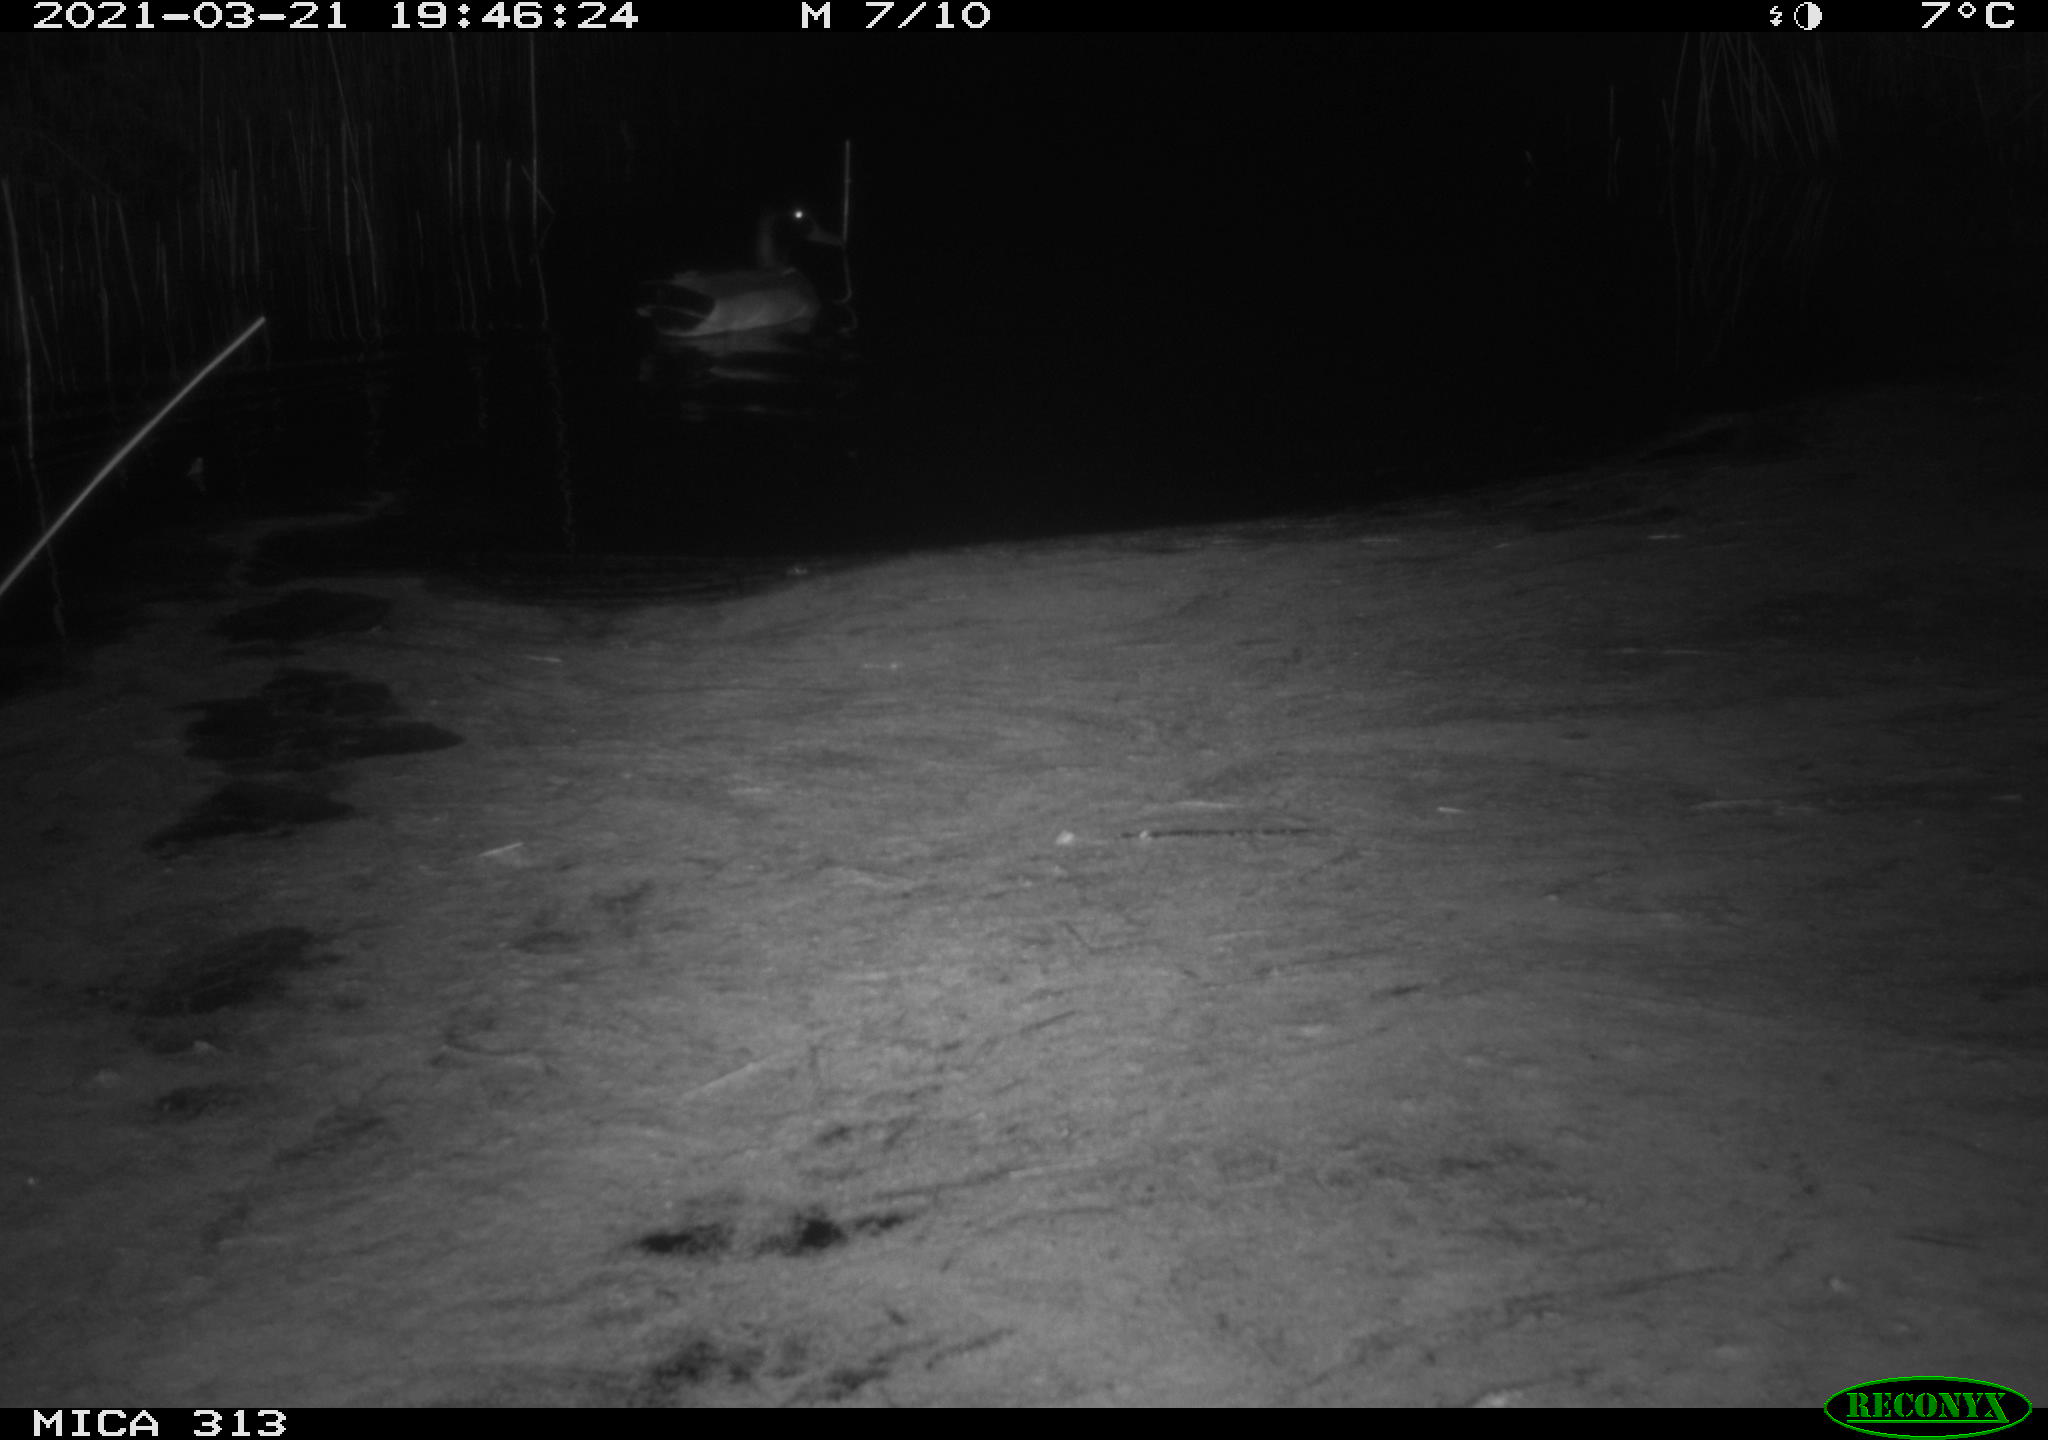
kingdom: Animalia
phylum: Chordata
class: Aves
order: Anseriformes
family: Anatidae
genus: Anas
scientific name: Anas platyrhynchos
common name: Mallard
